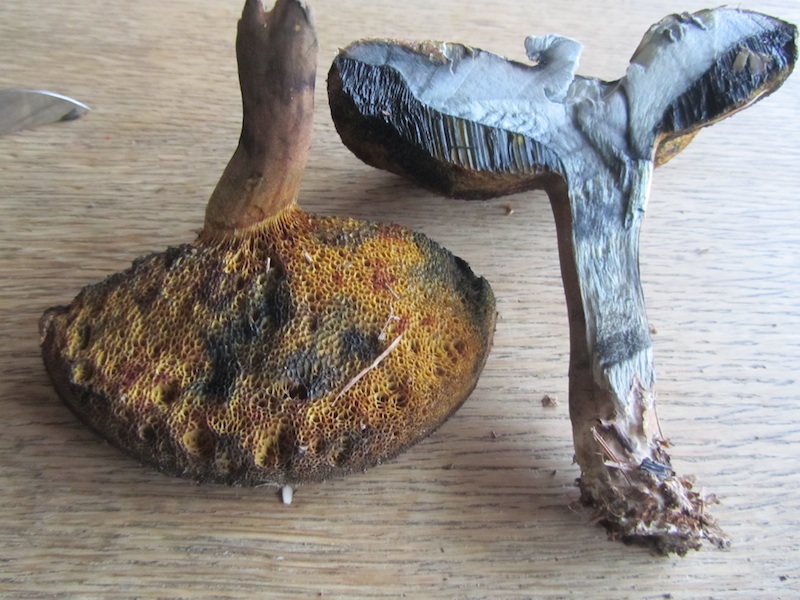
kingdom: Fungi
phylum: Basidiomycota
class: Agaricomycetes
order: Boletales
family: Boletaceae
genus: Cyanoboletus
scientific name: Cyanoboletus pulverulentus
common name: sortblånende rørhat
